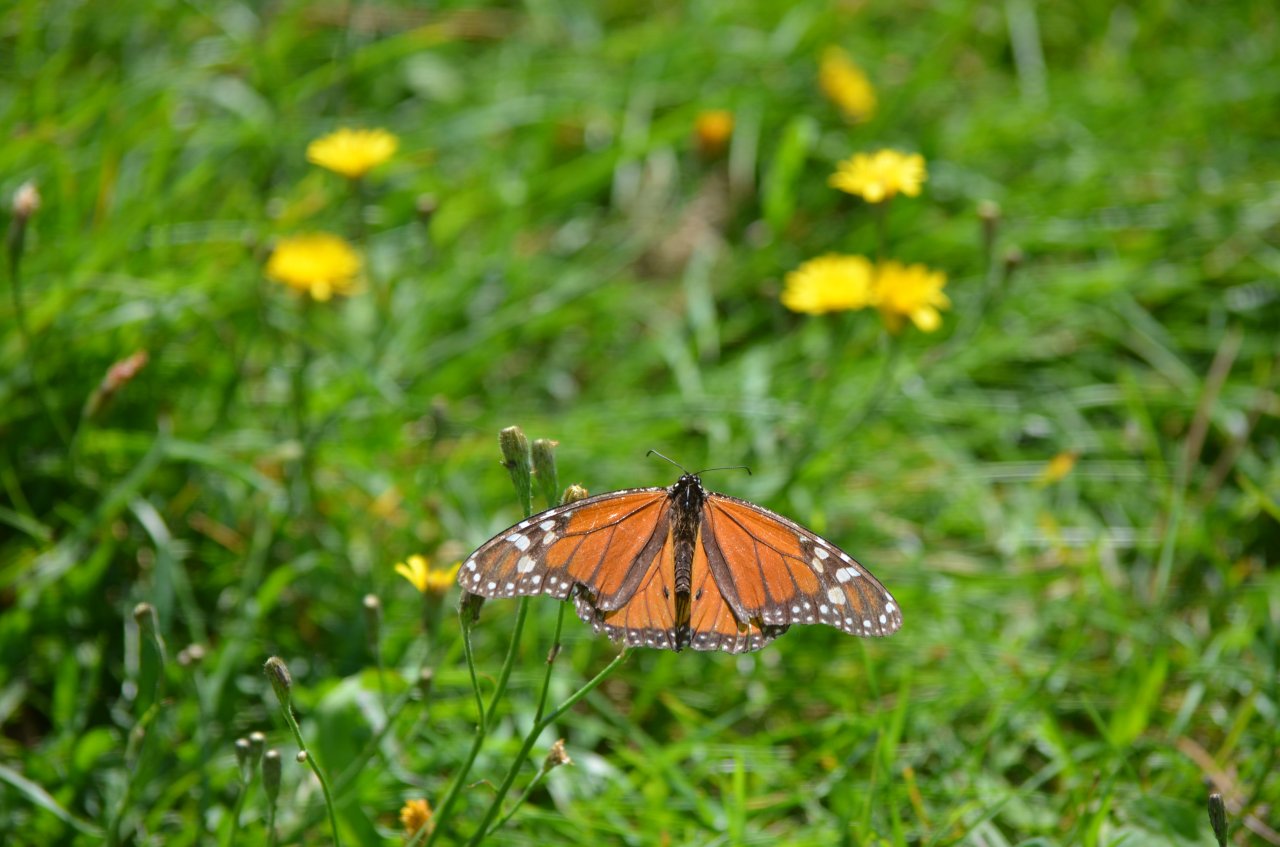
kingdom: Animalia
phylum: Arthropoda
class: Insecta
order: Lepidoptera
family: Nymphalidae
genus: Danaus
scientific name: Danaus plexippus
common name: Monarch
